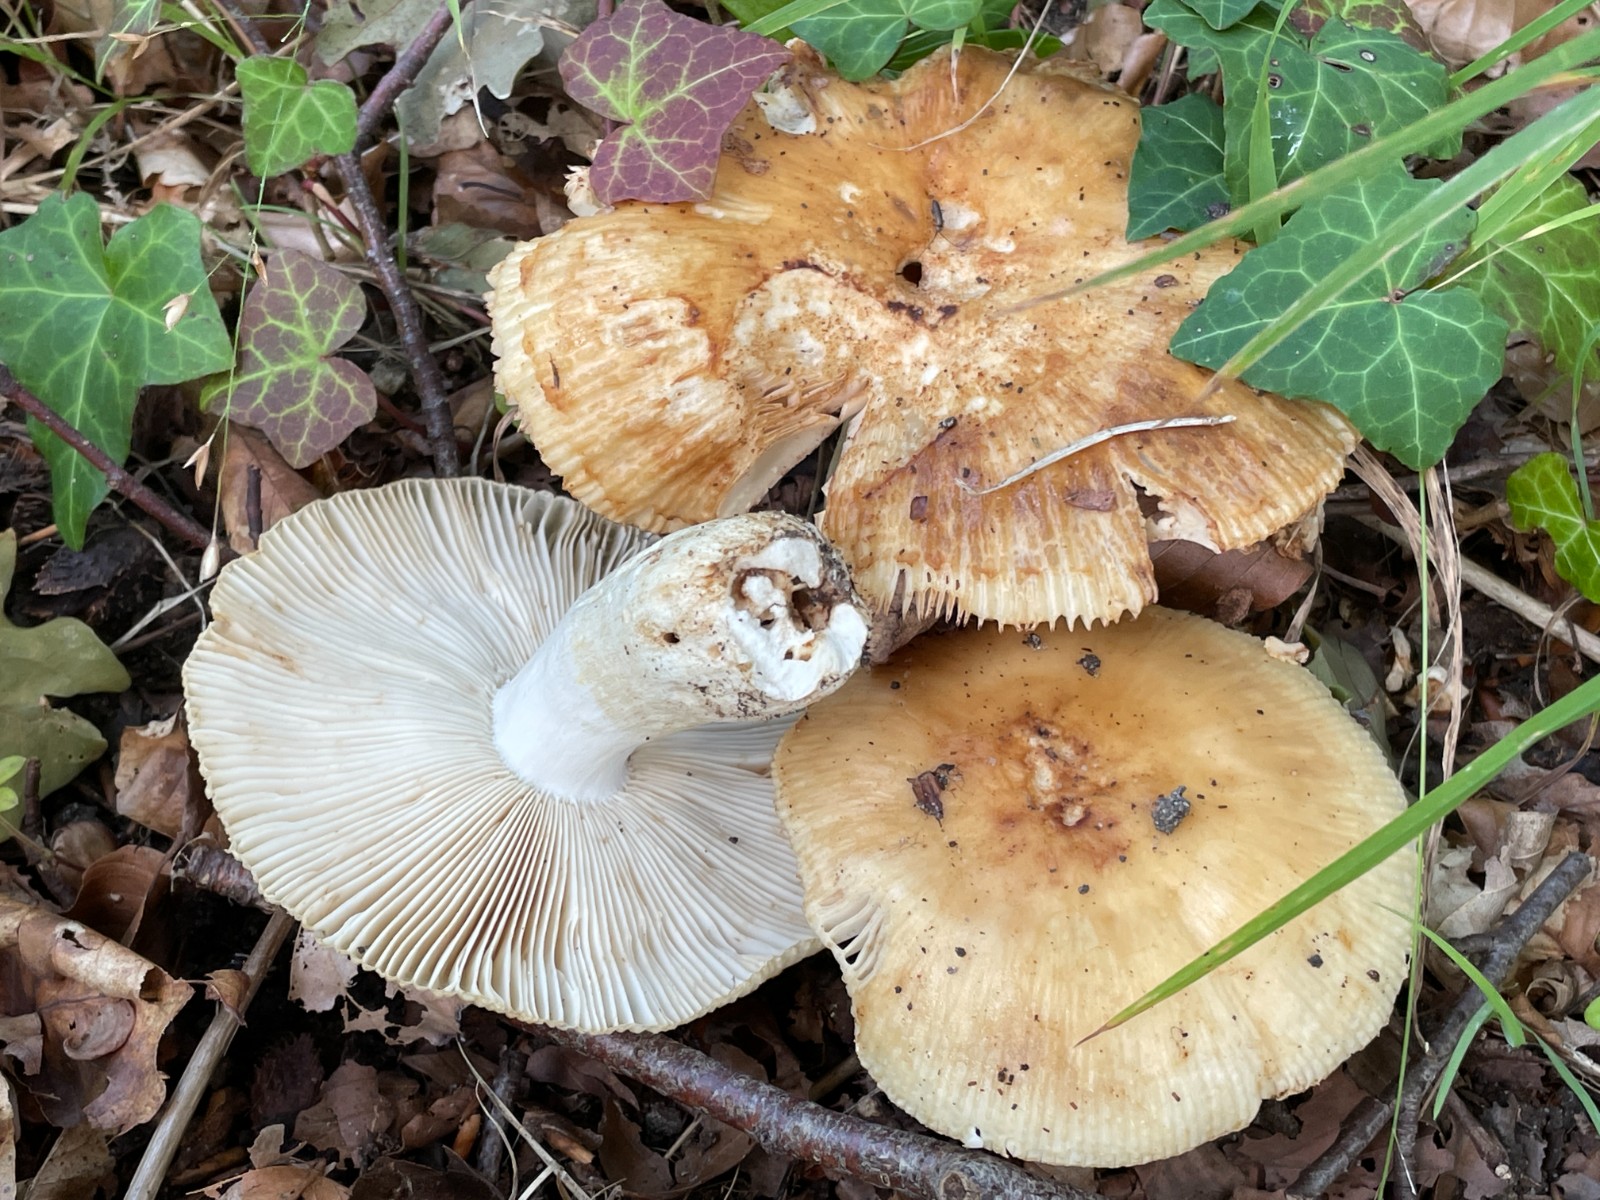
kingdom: Fungi
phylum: Basidiomycota
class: Agaricomycetes
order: Russulales
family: Russulaceae
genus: Russula
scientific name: Russula foetens
